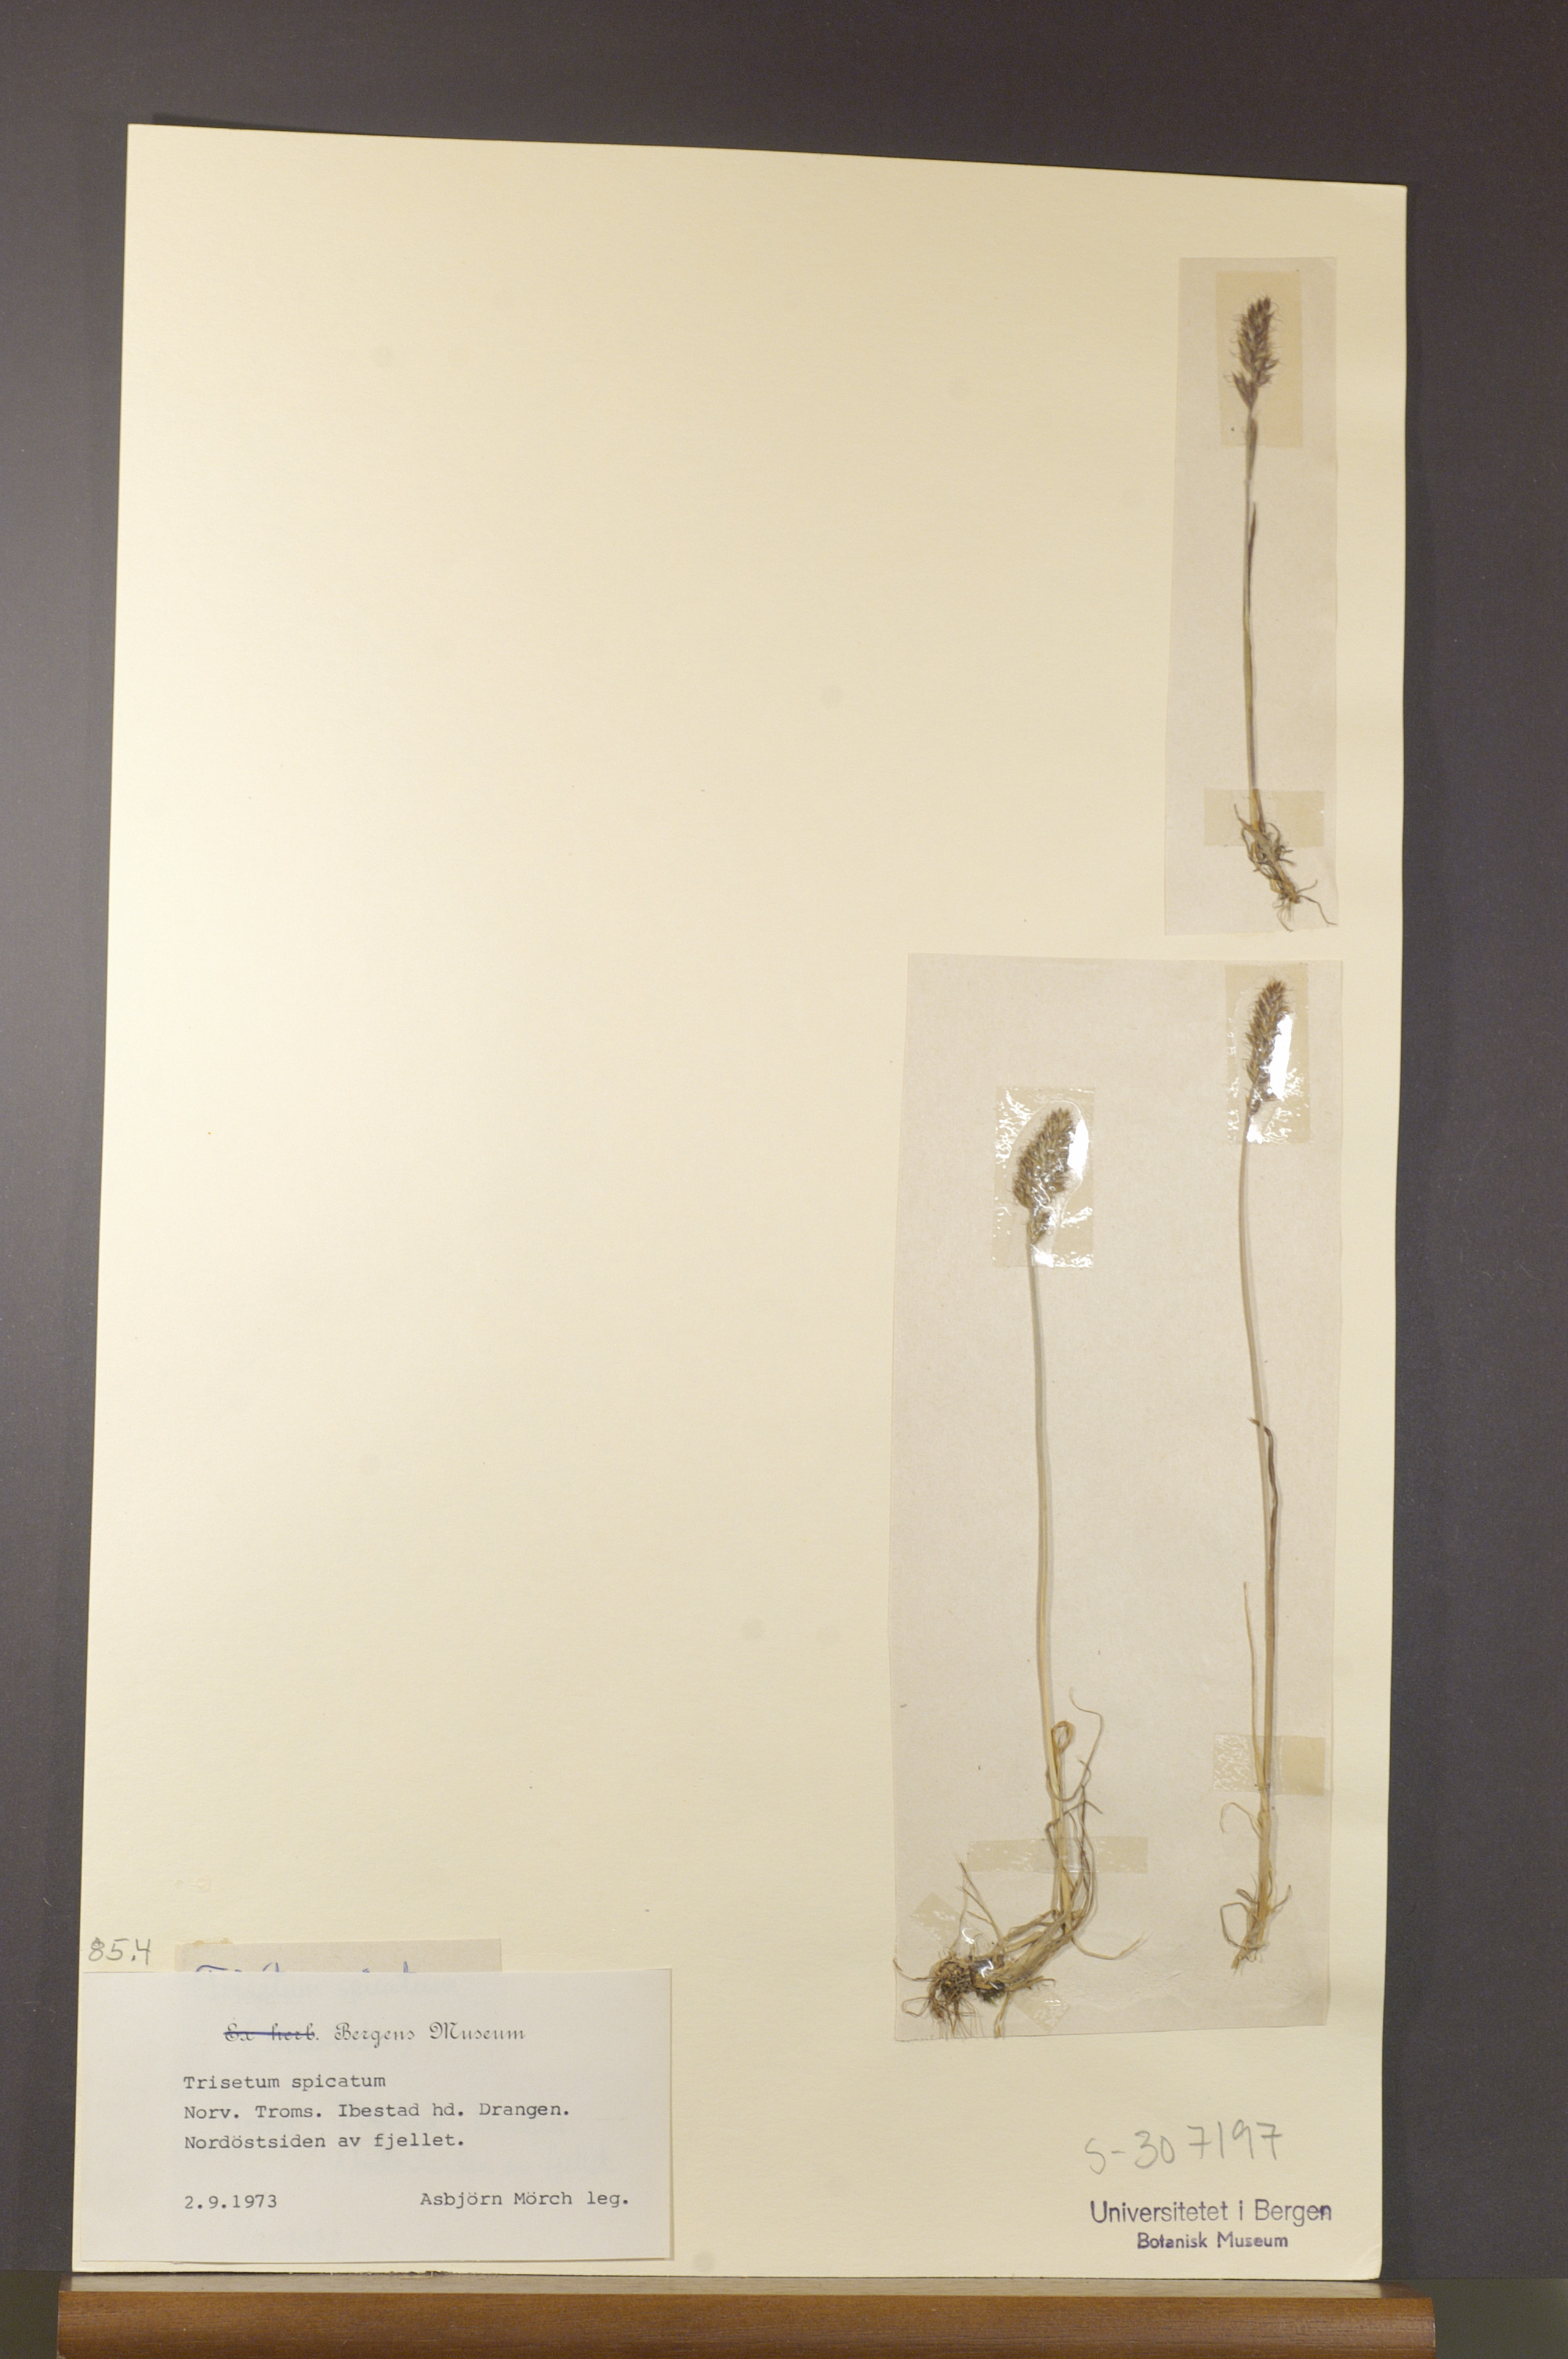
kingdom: Plantae
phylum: Tracheophyta
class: Liliopsida
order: Poales
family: Poaceae
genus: Koeleria
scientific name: Koeleria spicata
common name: Mountain trisetum
